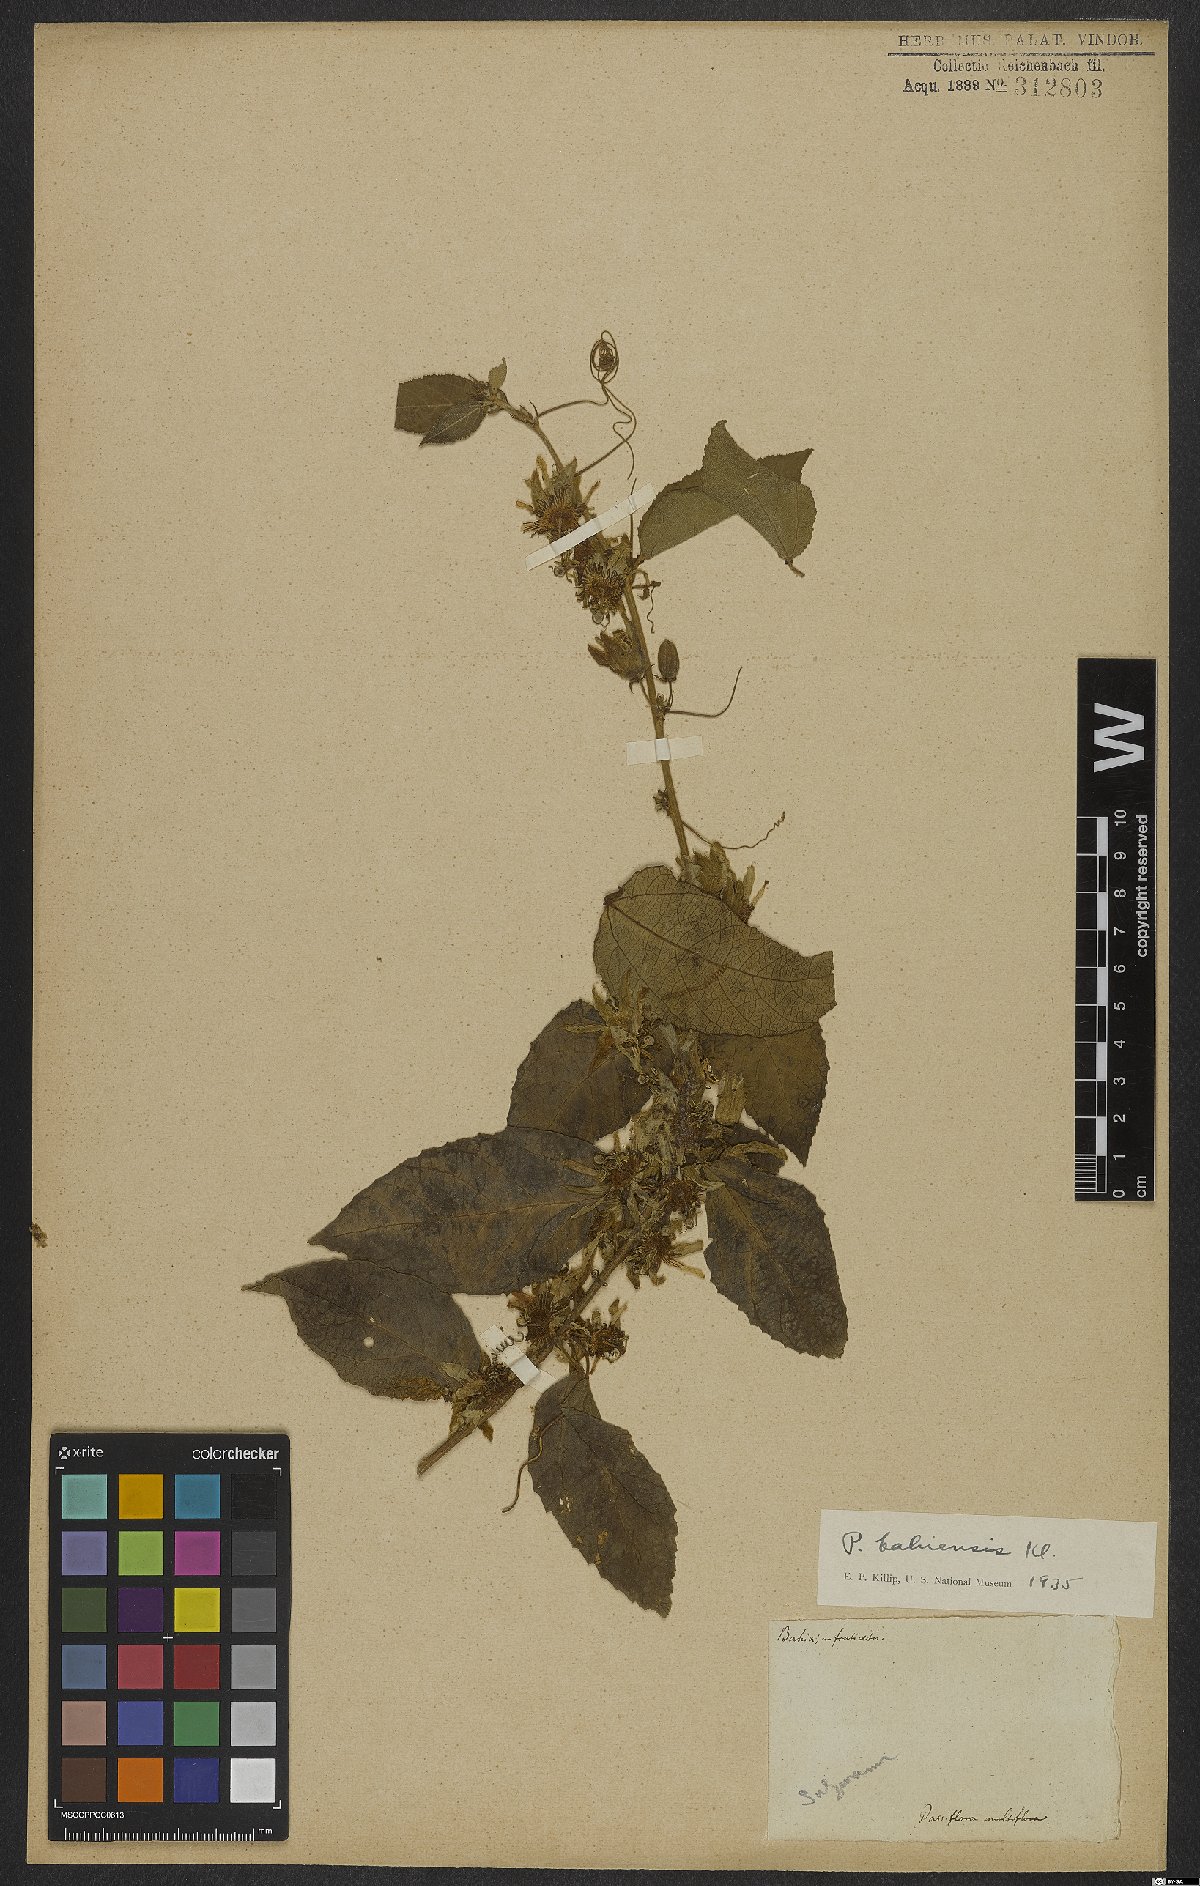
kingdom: Plantae
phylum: Tracheophyta
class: Magnoliopsida
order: Malpighiales
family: Passifloraceae
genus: Passiflora
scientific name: Passiflora bahiensis
